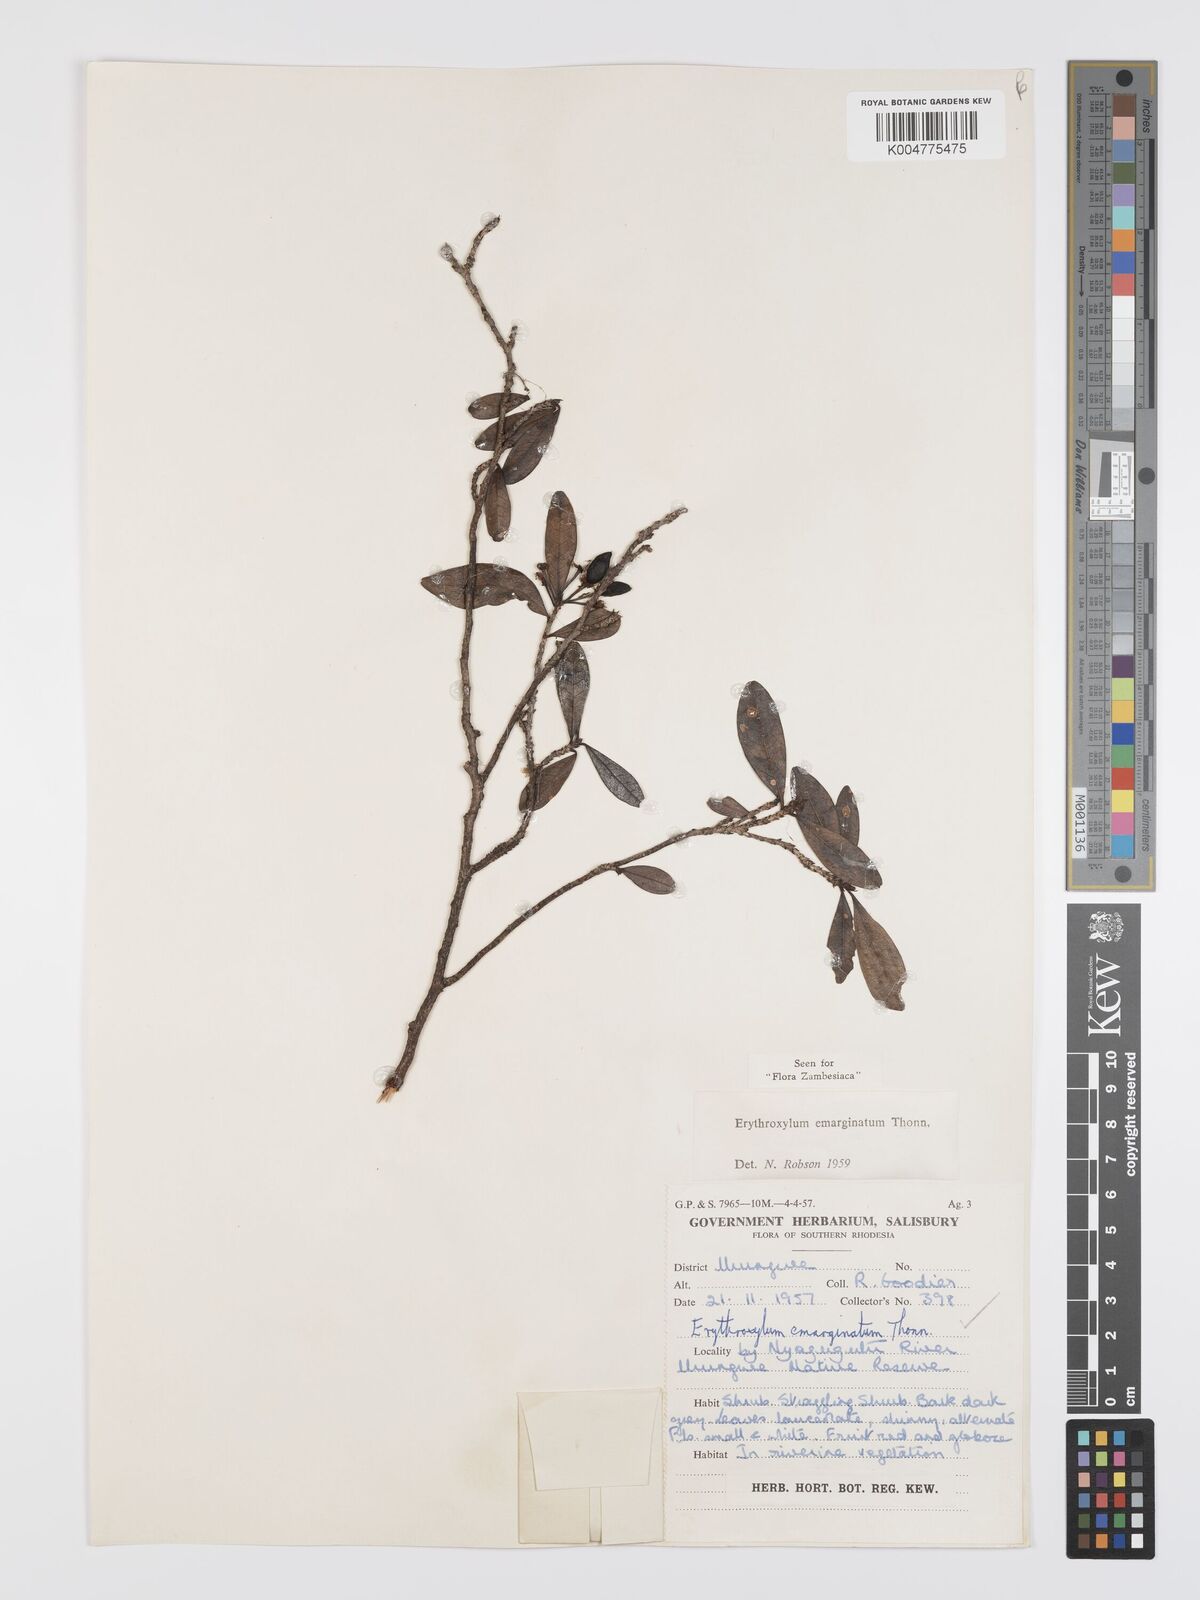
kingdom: Plantae
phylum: Tracheophyta
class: Magnoliopsida
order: Malpighiales
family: Erythroxylaceae
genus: Erythroxylum
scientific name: Erythroxylum emarginatum
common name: African coca-tree
